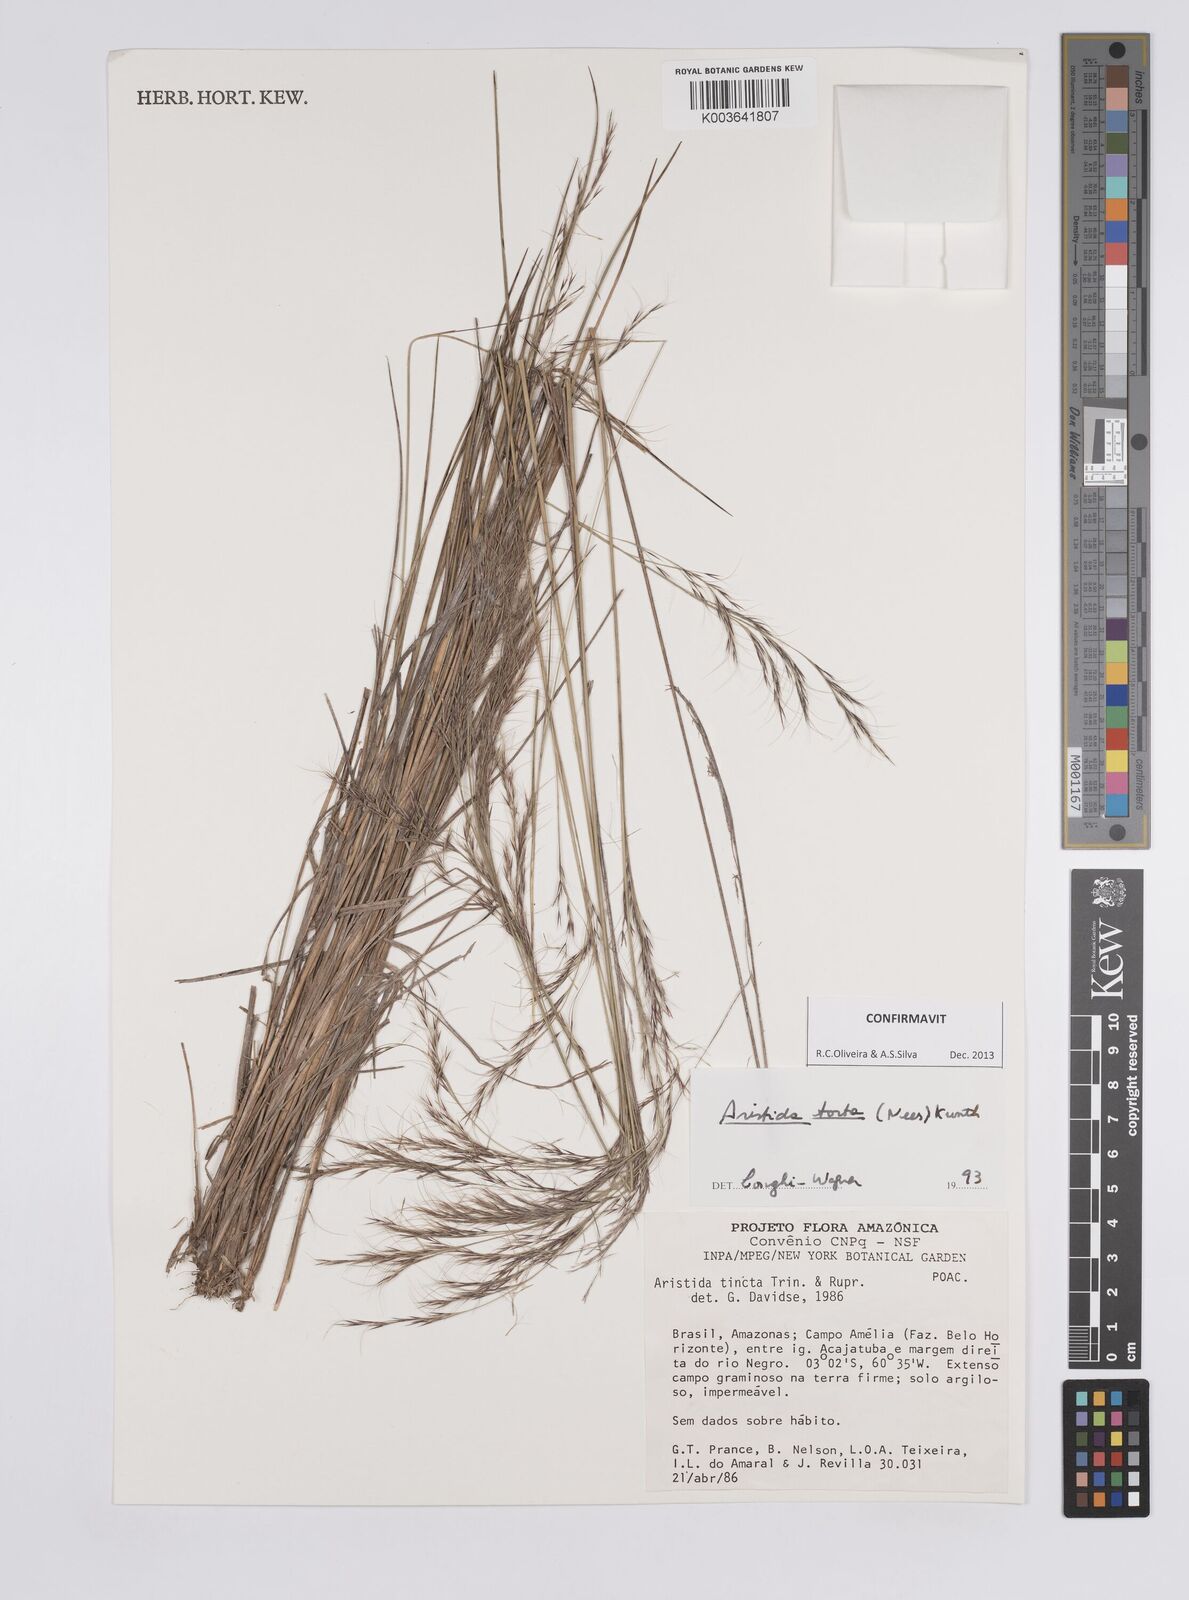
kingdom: Plantae
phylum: Tracheophyta
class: Liliopsida
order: Poales
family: Poaceae
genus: Aristida
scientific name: Aristida torta
